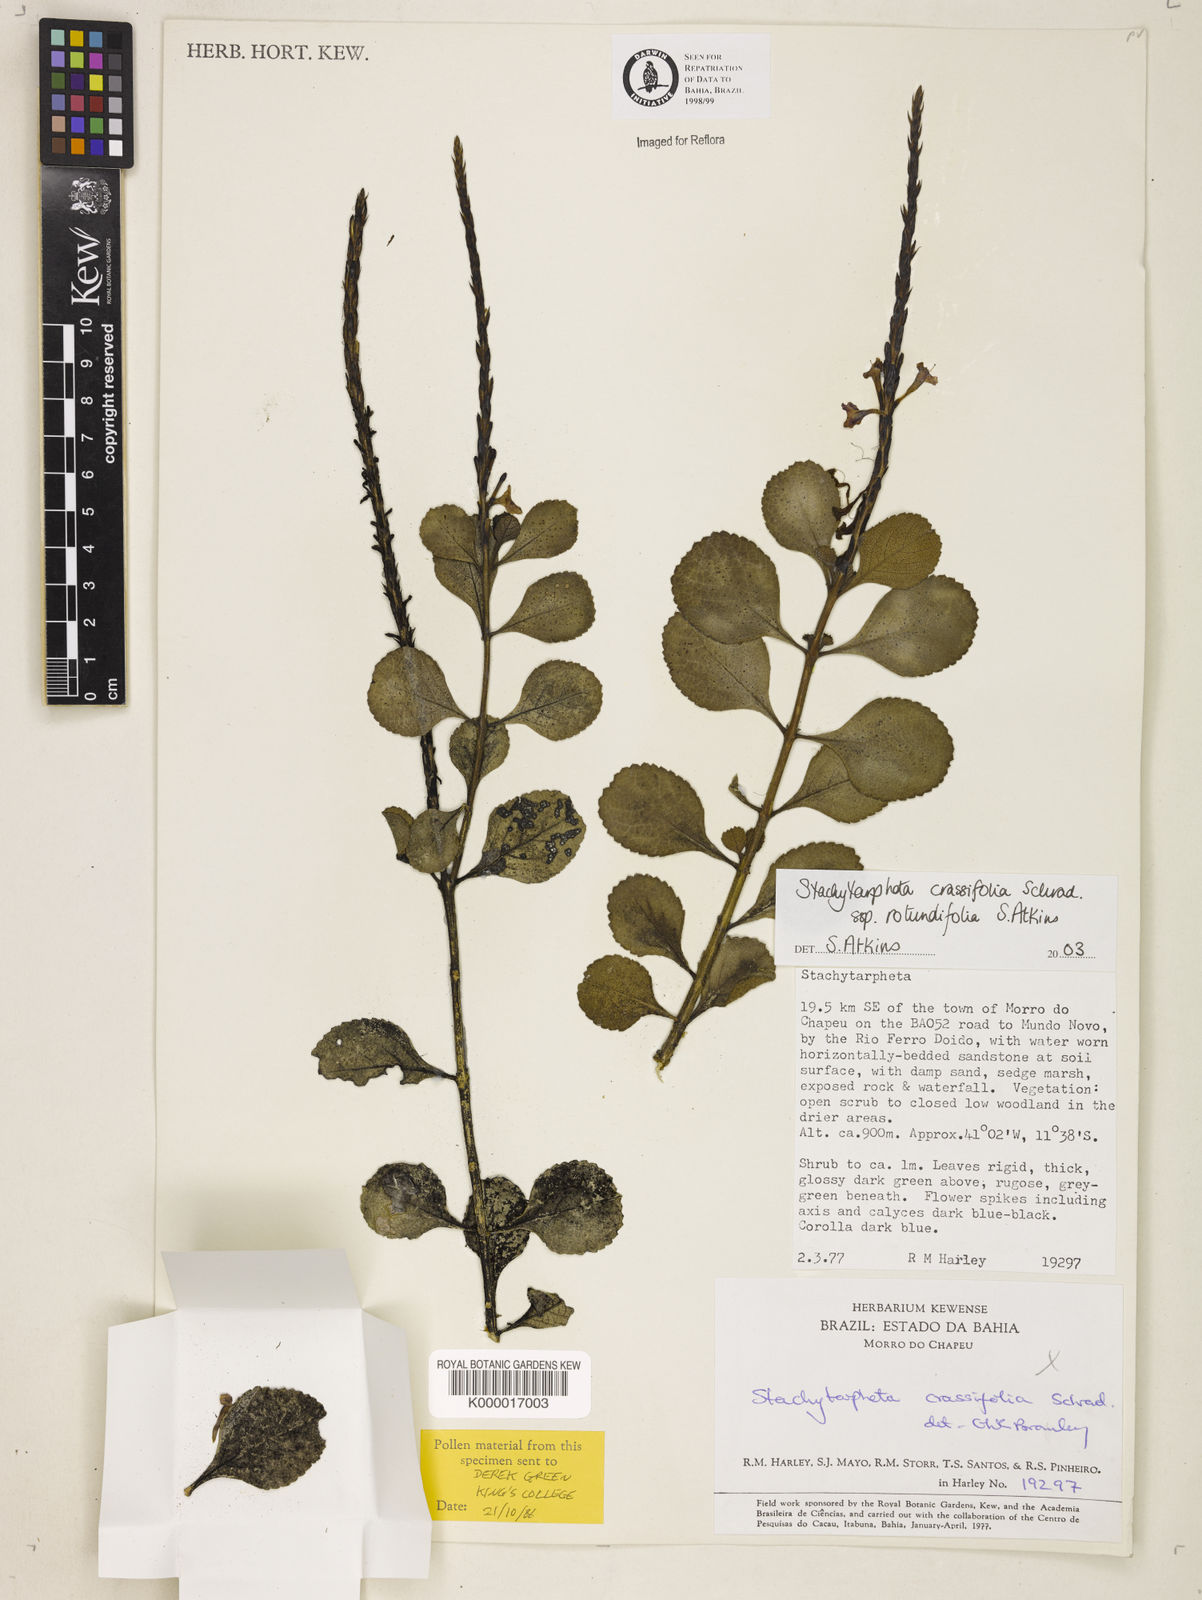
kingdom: Plantae
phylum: Tracheophyta
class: Magnoliopsida
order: Lamiales
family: Verbenaceae
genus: Stachytarpheta
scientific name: Stachytarpheta crassifolia
